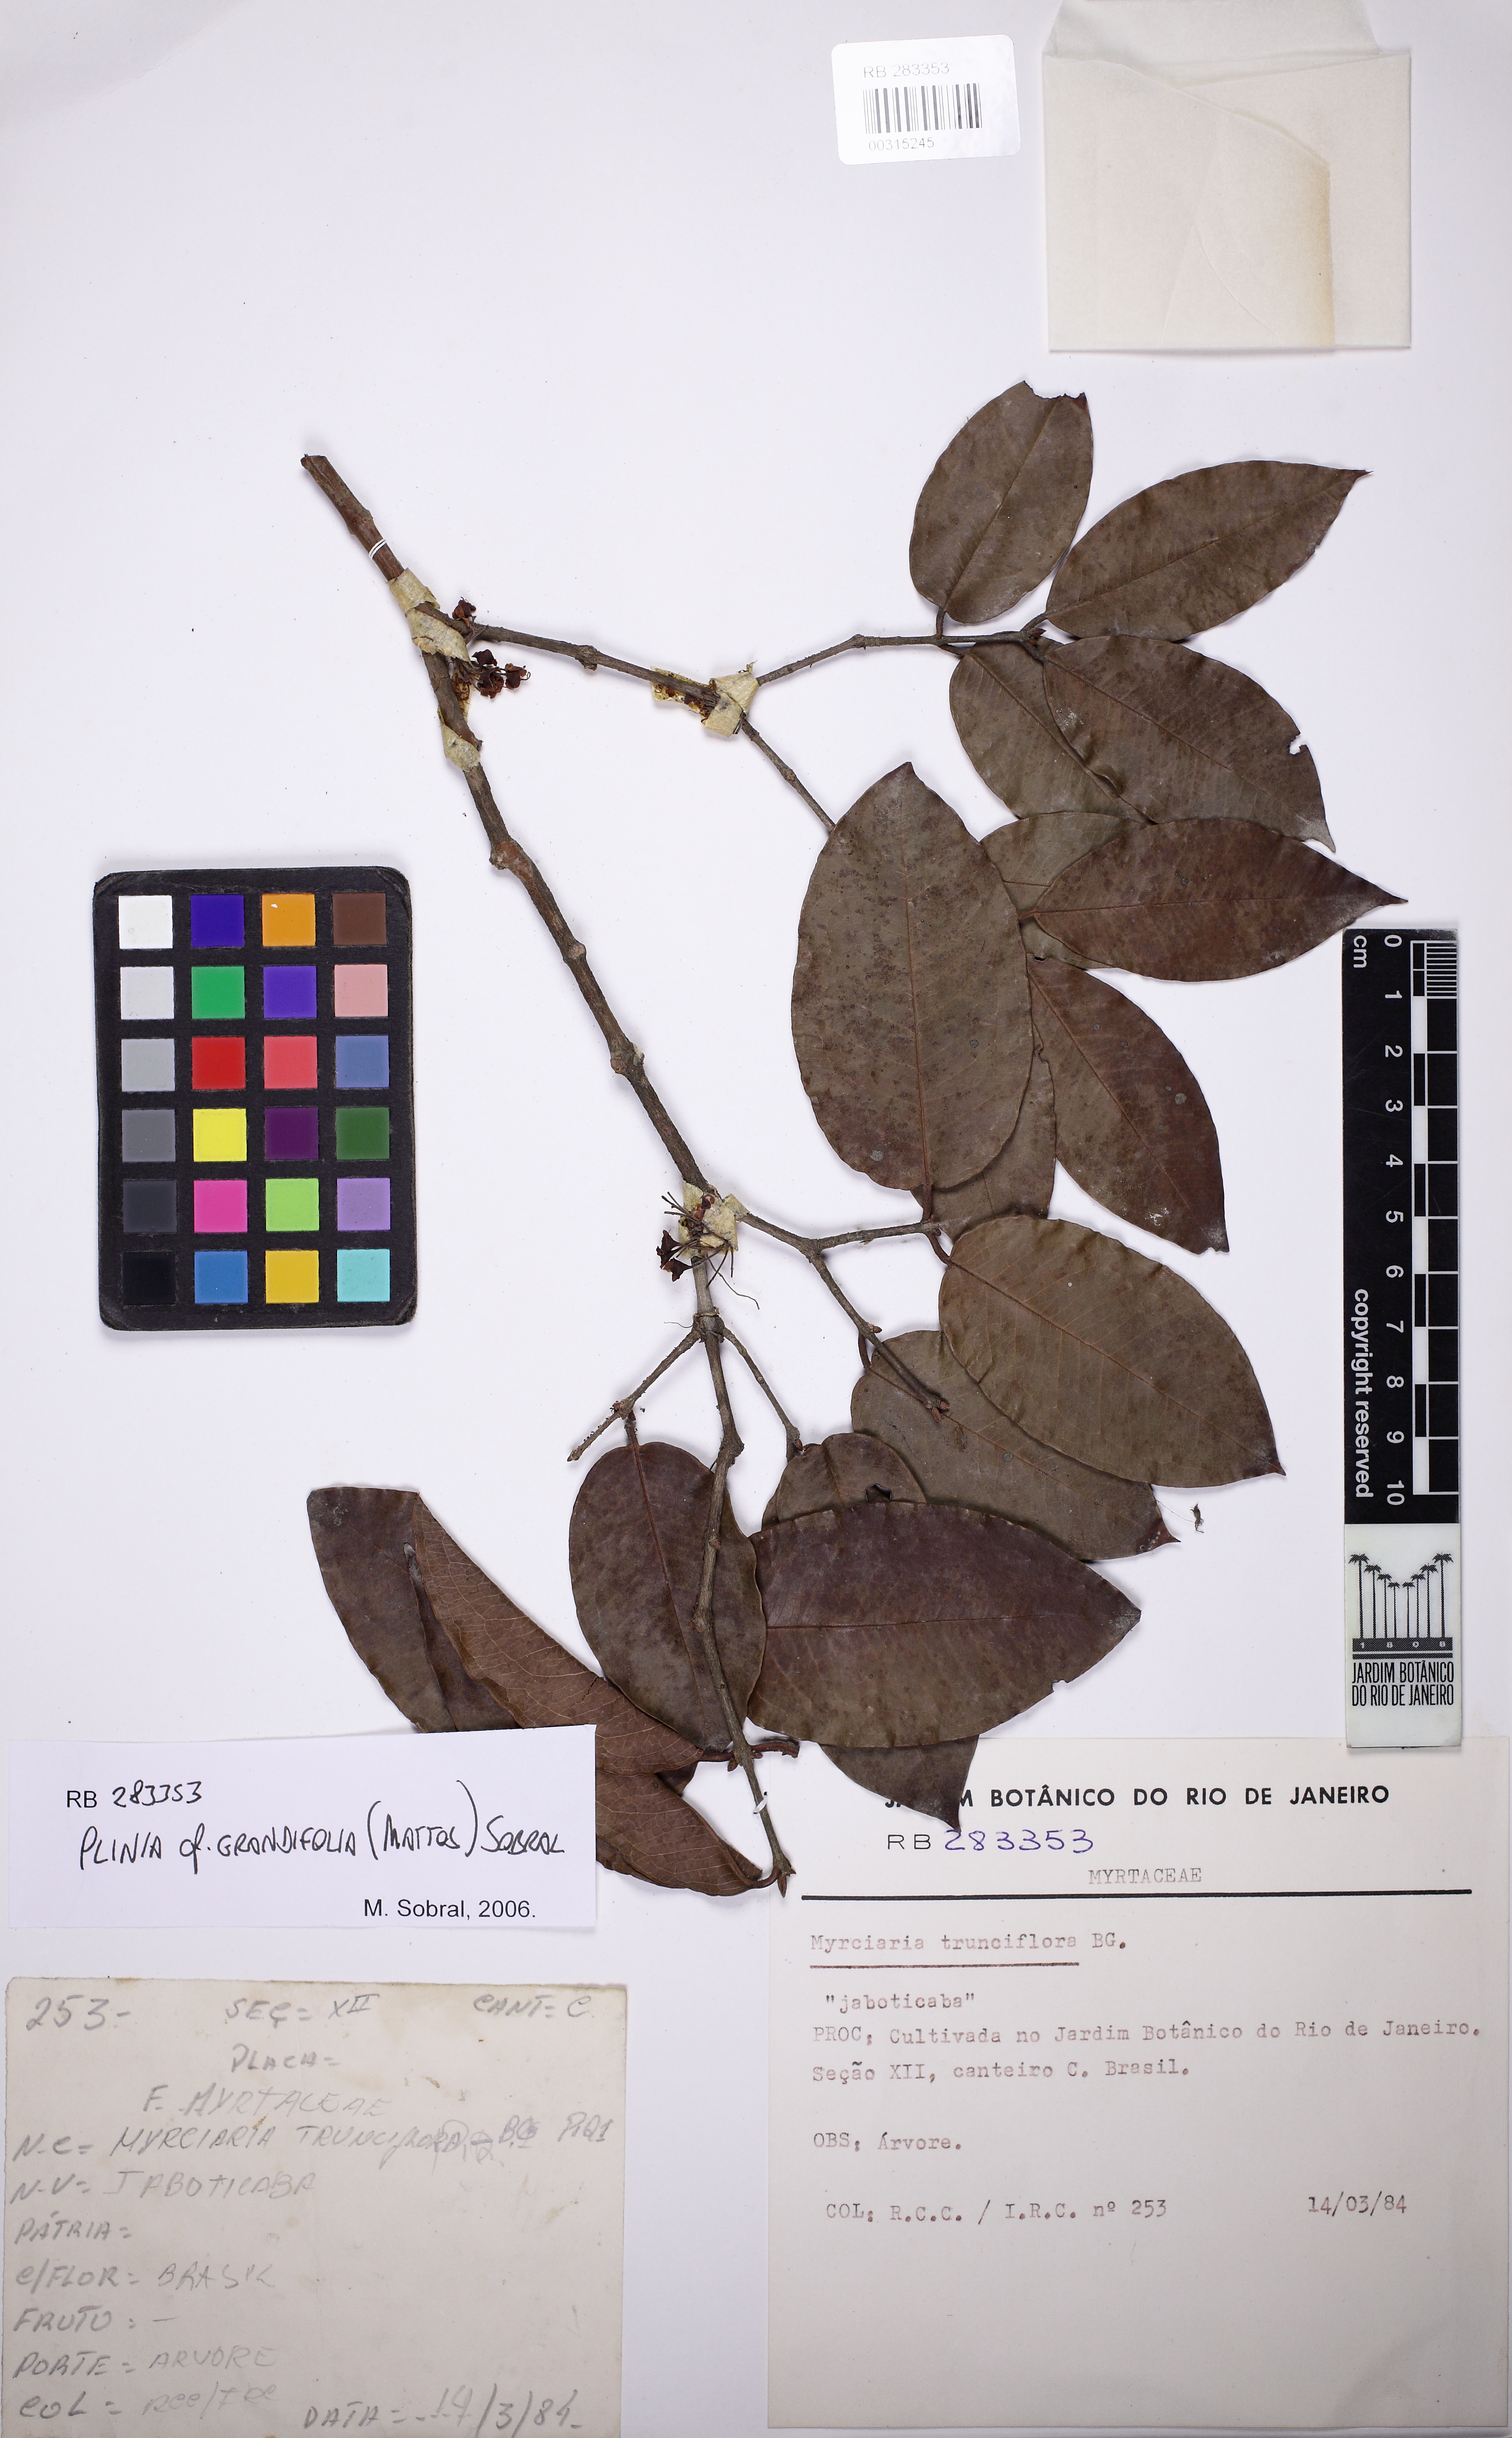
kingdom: Plantae
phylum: Tracheophyta
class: Magnoliopsida
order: Myrtales
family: Myrtaceae
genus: Plinia
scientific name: Plinia grandifolia
